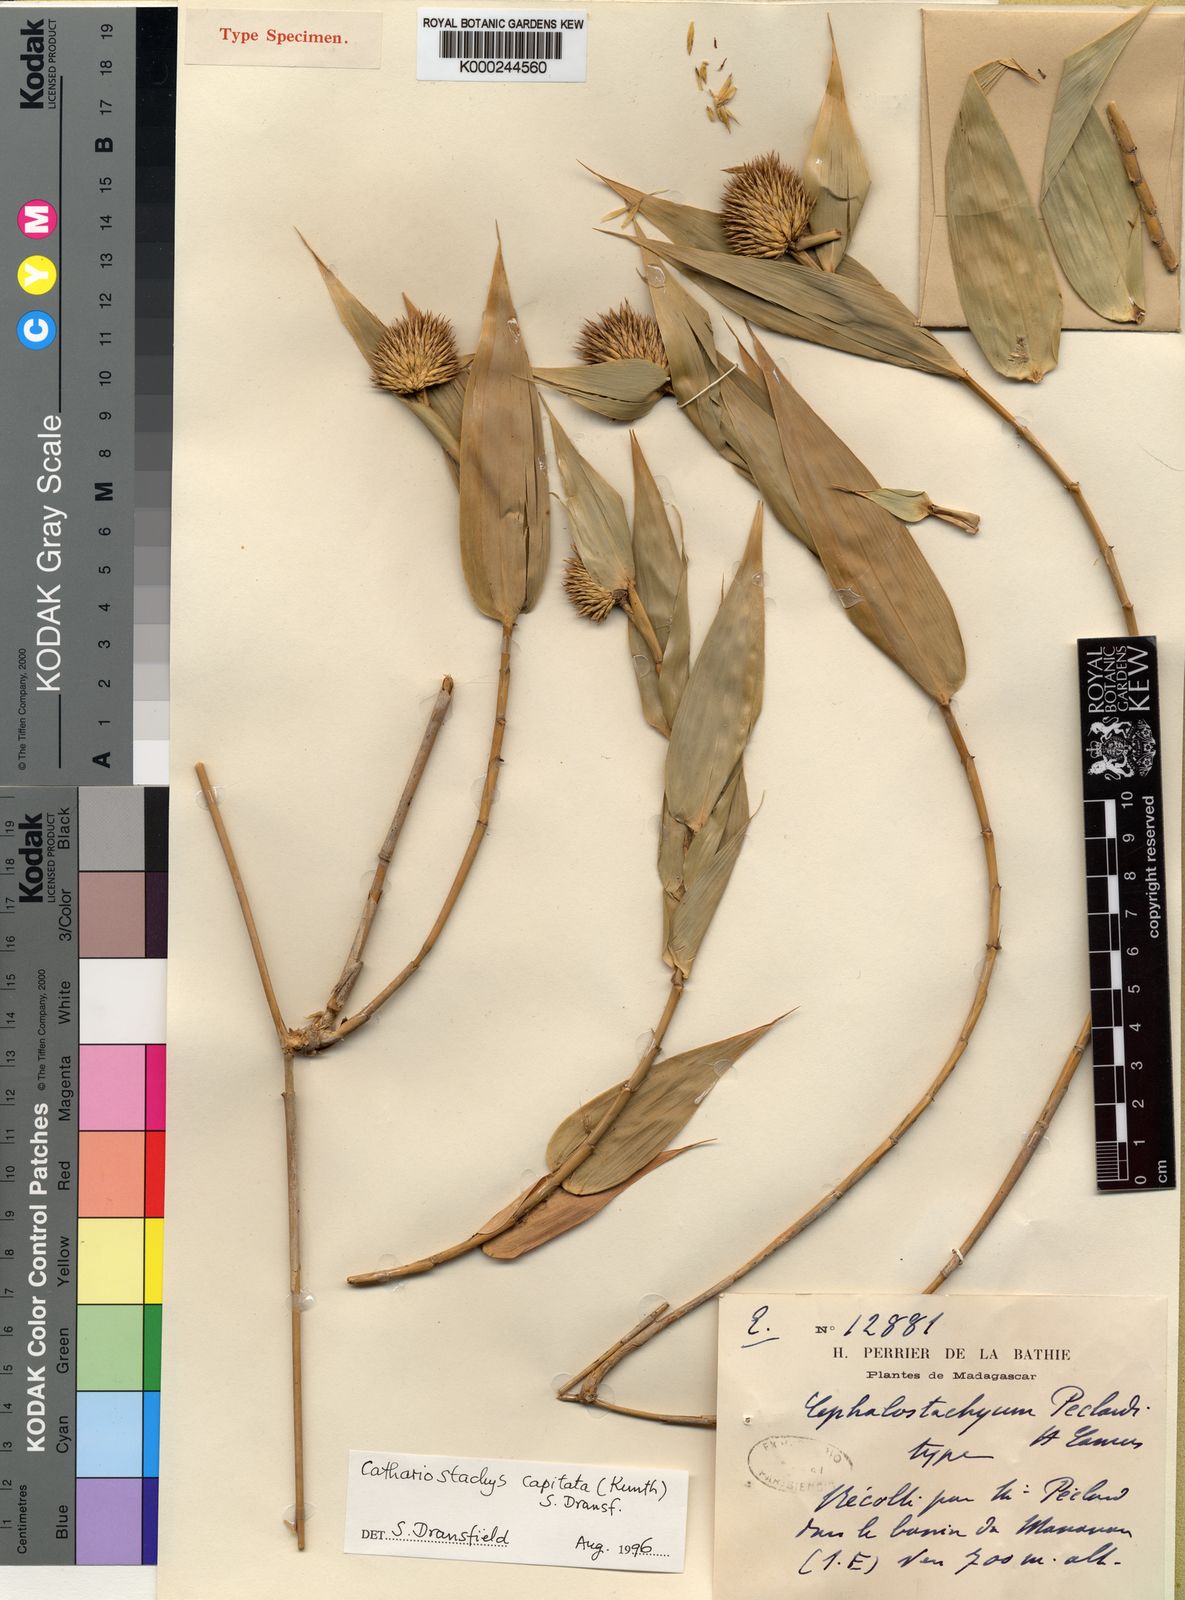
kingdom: Plantae
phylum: Tracheophyta
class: Liliopsida
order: Poales
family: Poaceae
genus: Cathariostachys
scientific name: Cathariostachys capitata
